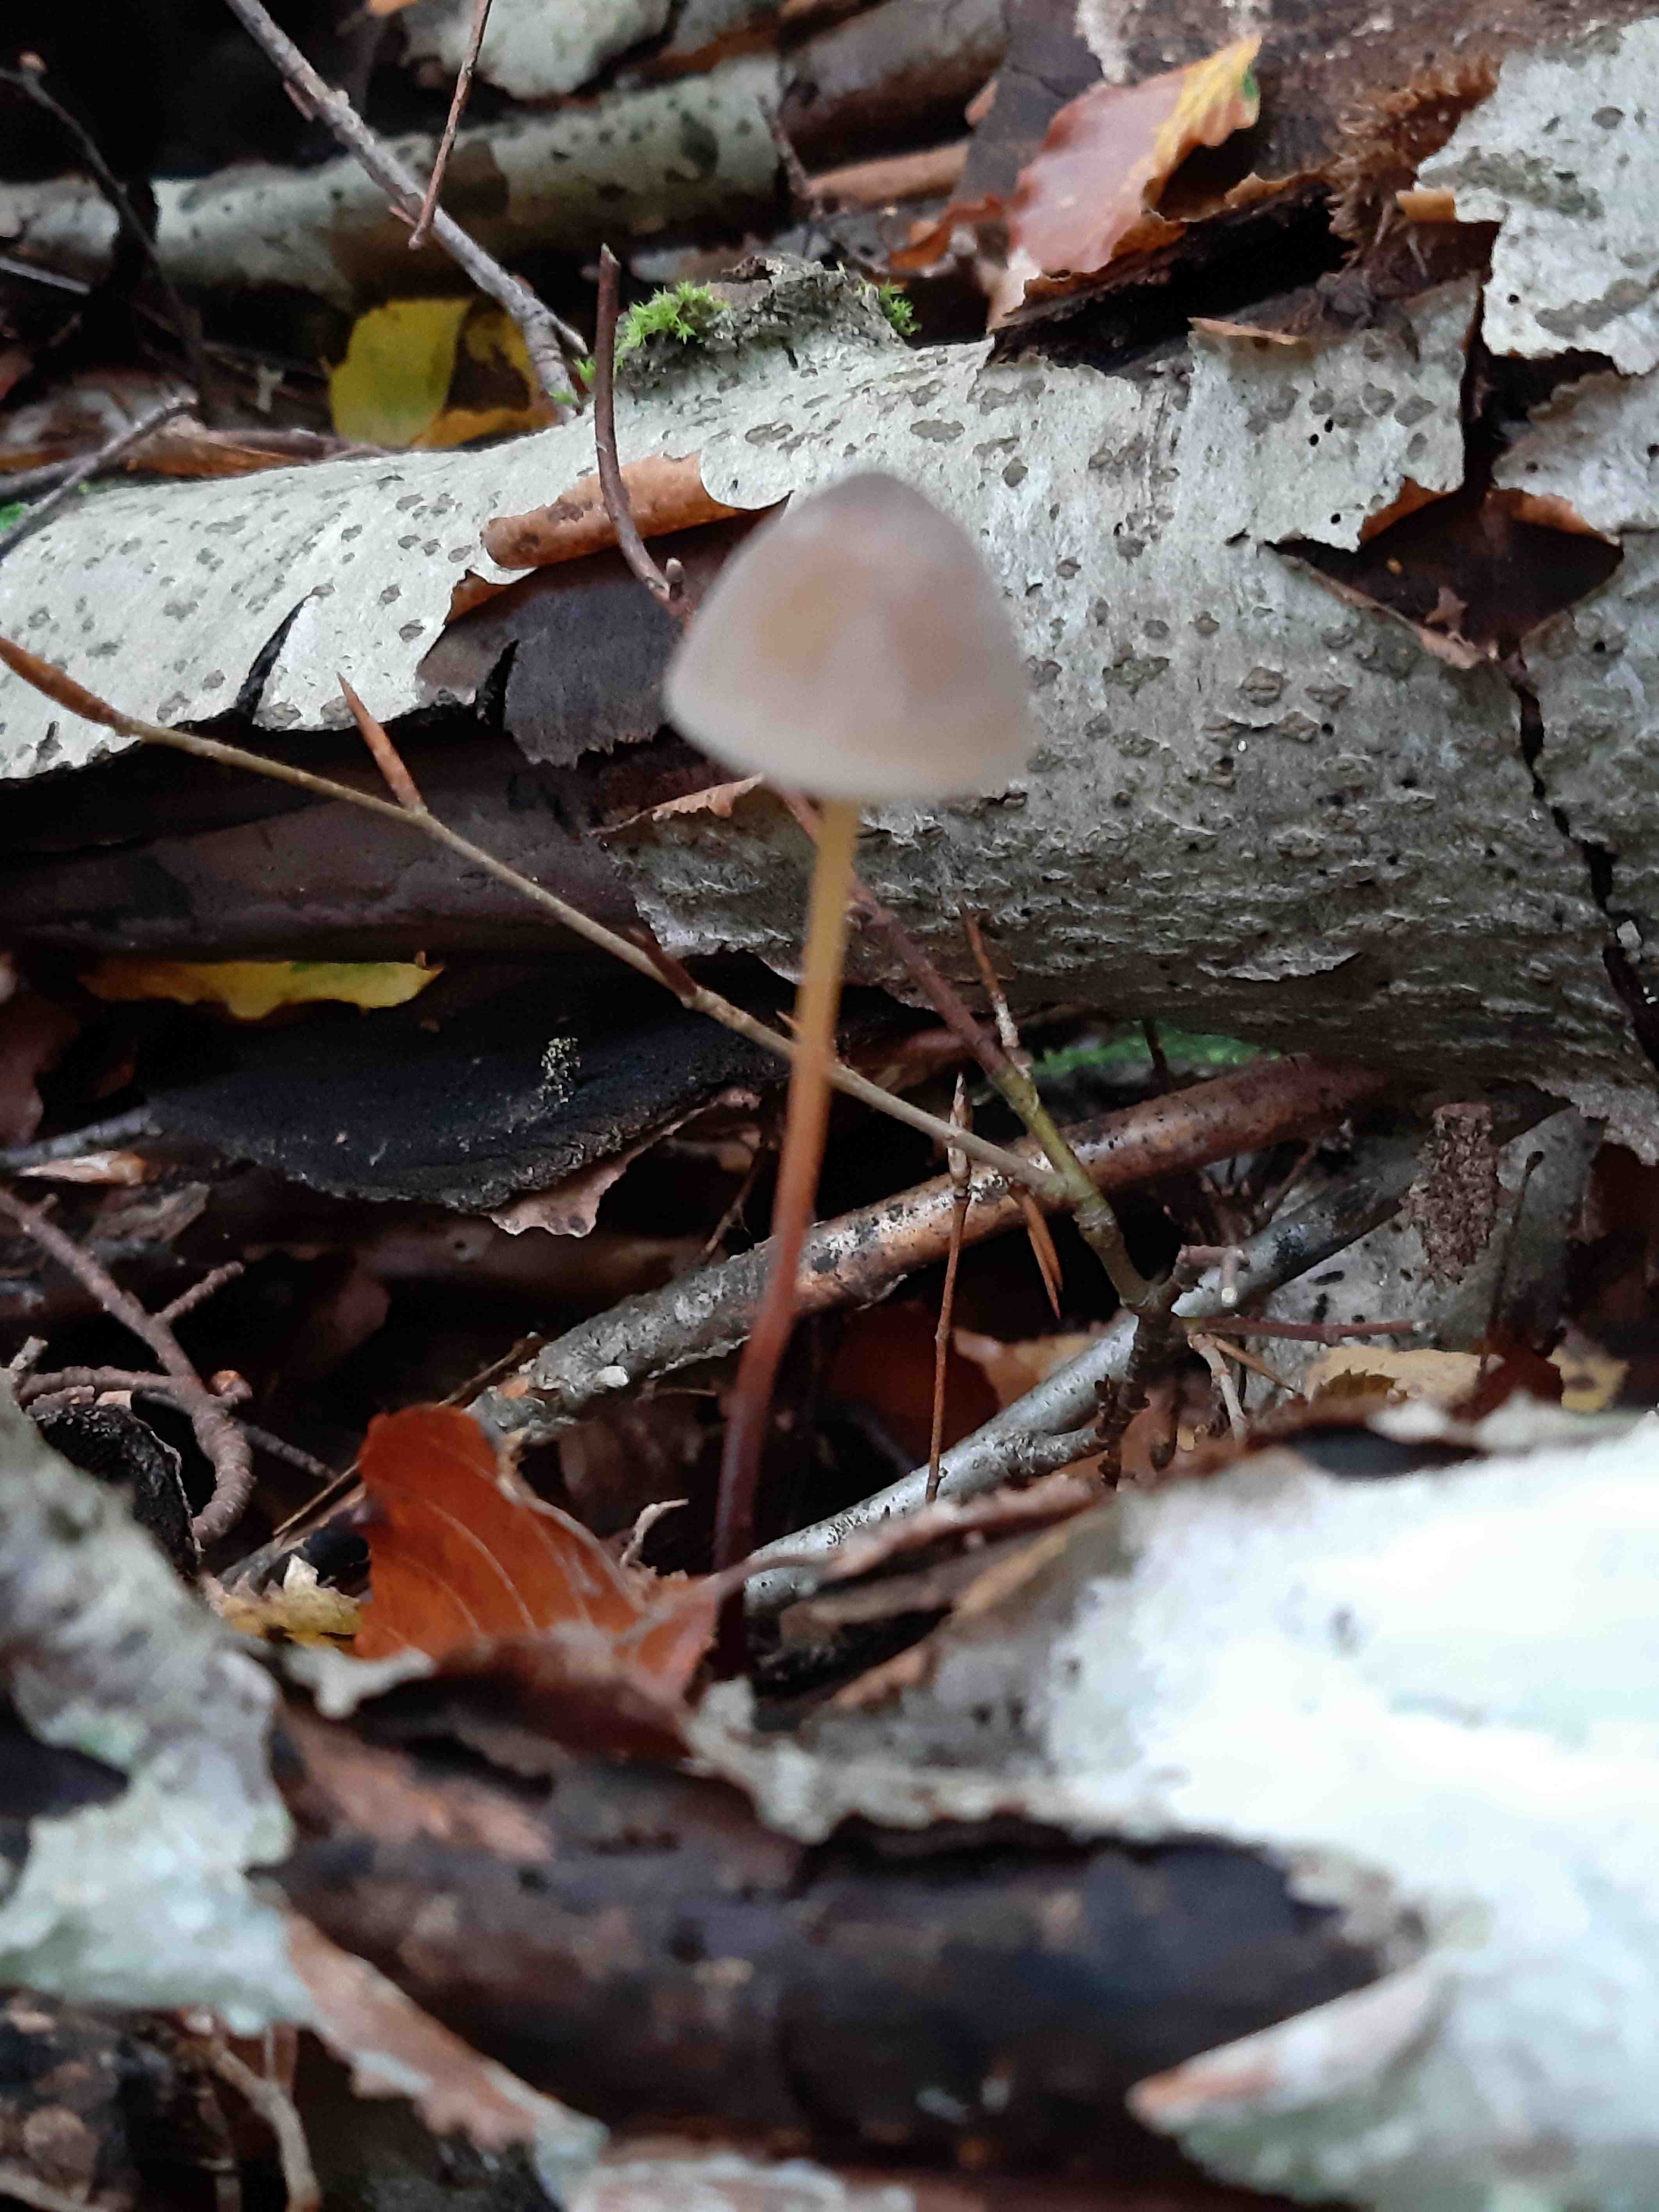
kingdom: Fungi
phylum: Basidiomycota
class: Agaricomycetes
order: Agaricales
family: Mycenaceae
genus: Mycena
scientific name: Mycena crocata
